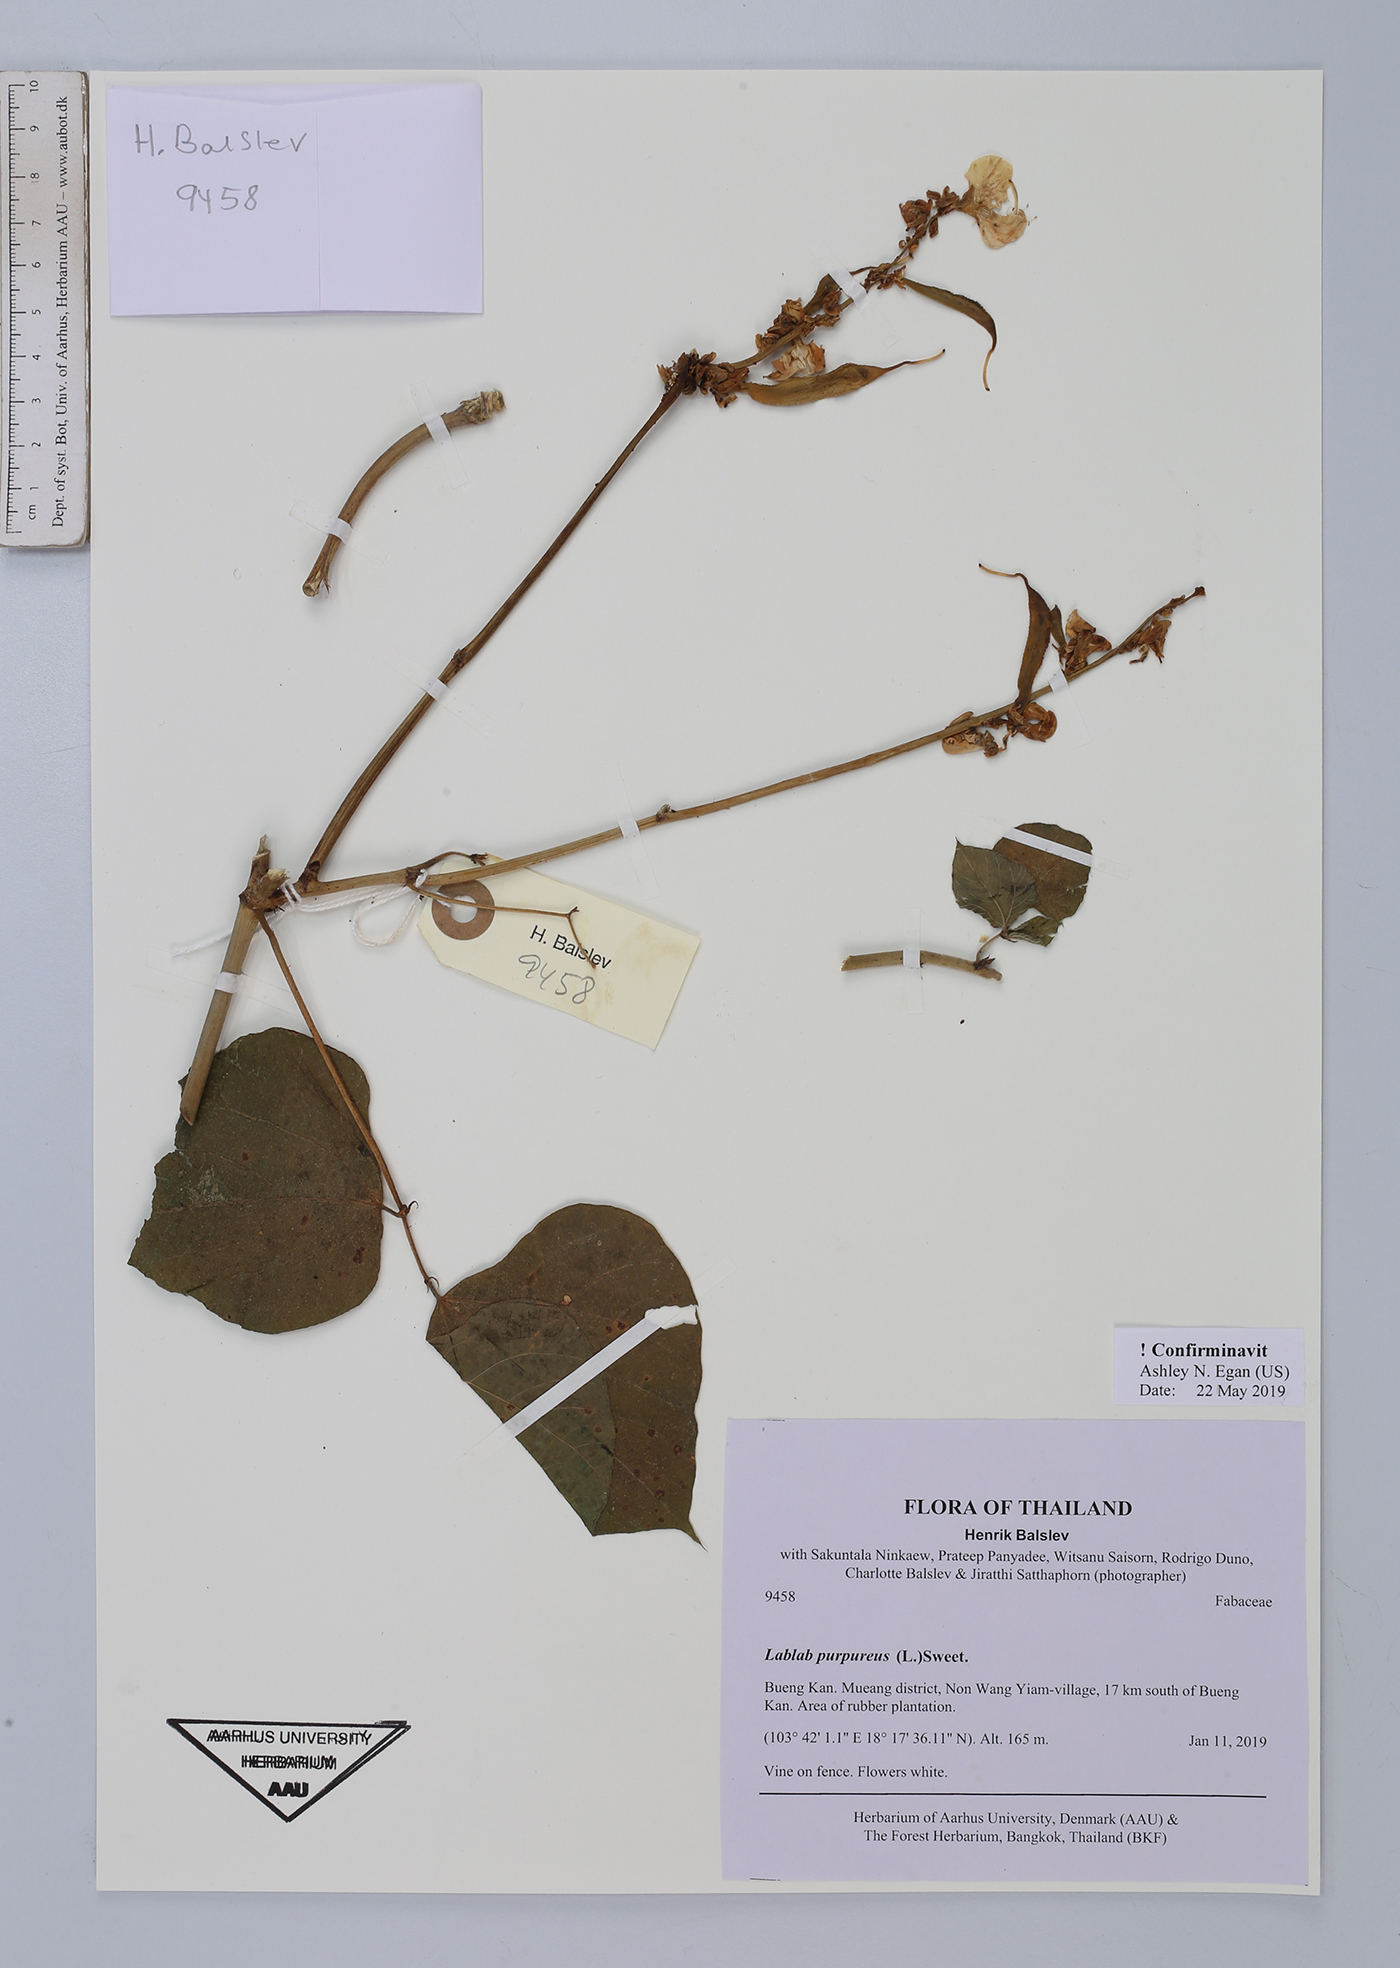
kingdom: Plantae
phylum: Tracheophyta
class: Magnoliopsida
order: Fabales
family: Fabaceae
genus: Lablab
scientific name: Lablab purpureus
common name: Lablab-bean
